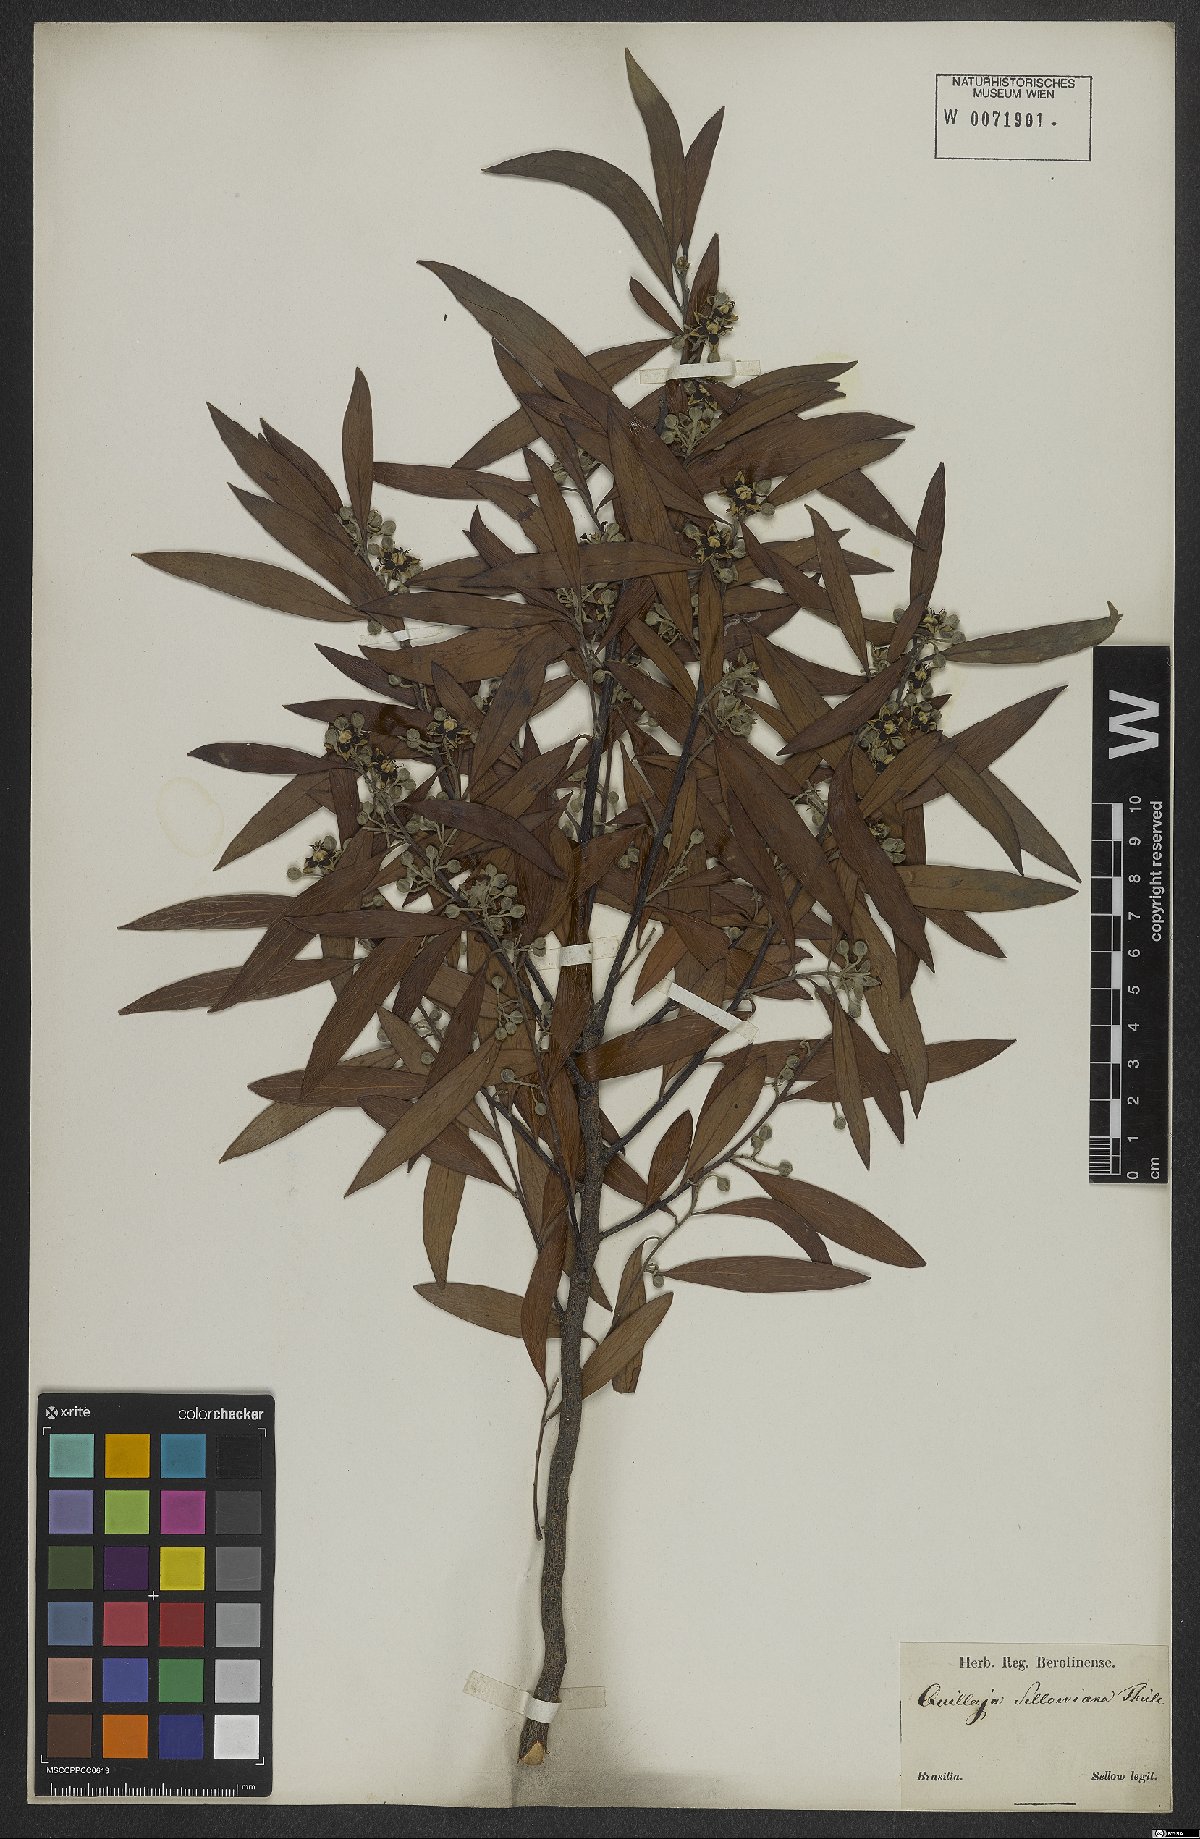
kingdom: Plantae
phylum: Tracheophyta
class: Magnoliopsida
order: Fabales
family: Quillajaceae
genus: Quillaja
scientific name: Quillaja brasiliensis
